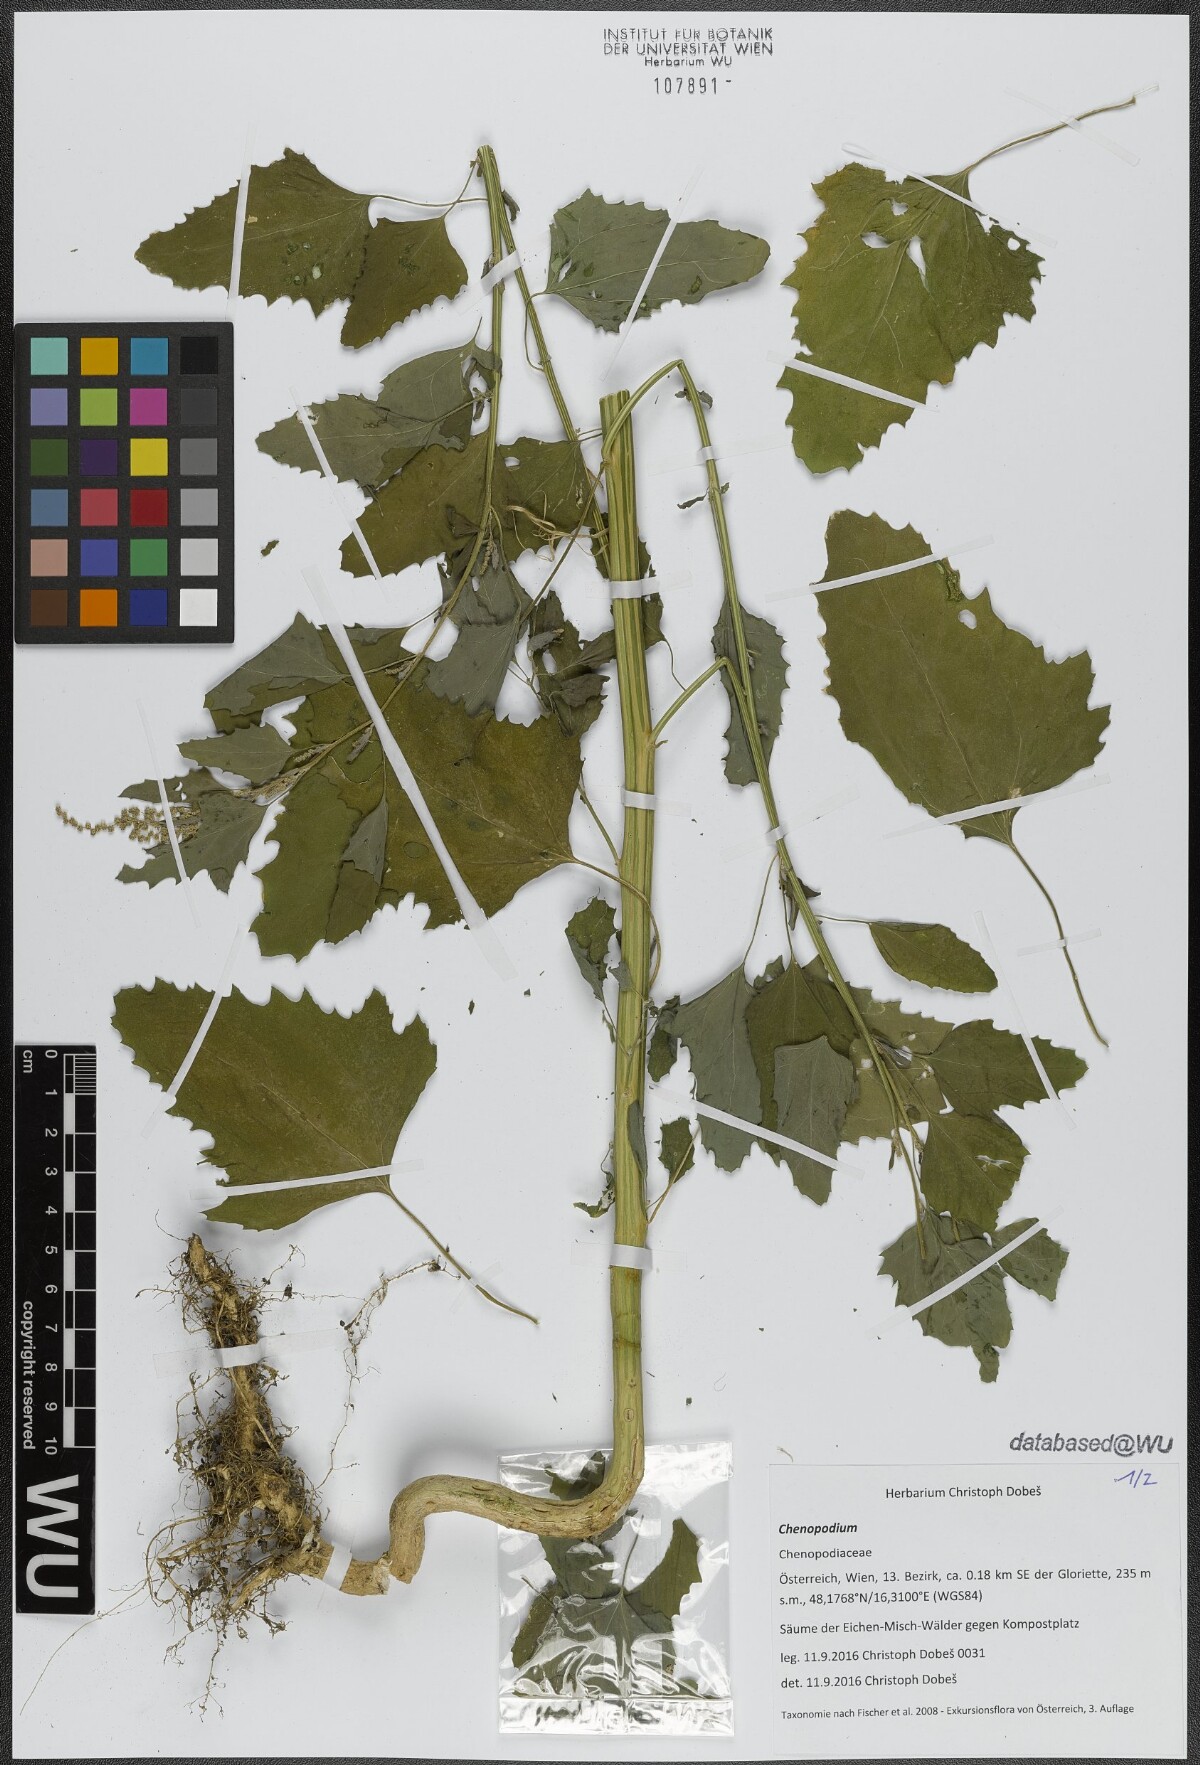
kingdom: Plantae
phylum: Tracheophyta
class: Magnoliopsida
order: Caryophyllales
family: Amaranthaceae
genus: Chenopodium
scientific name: Chenopodium
